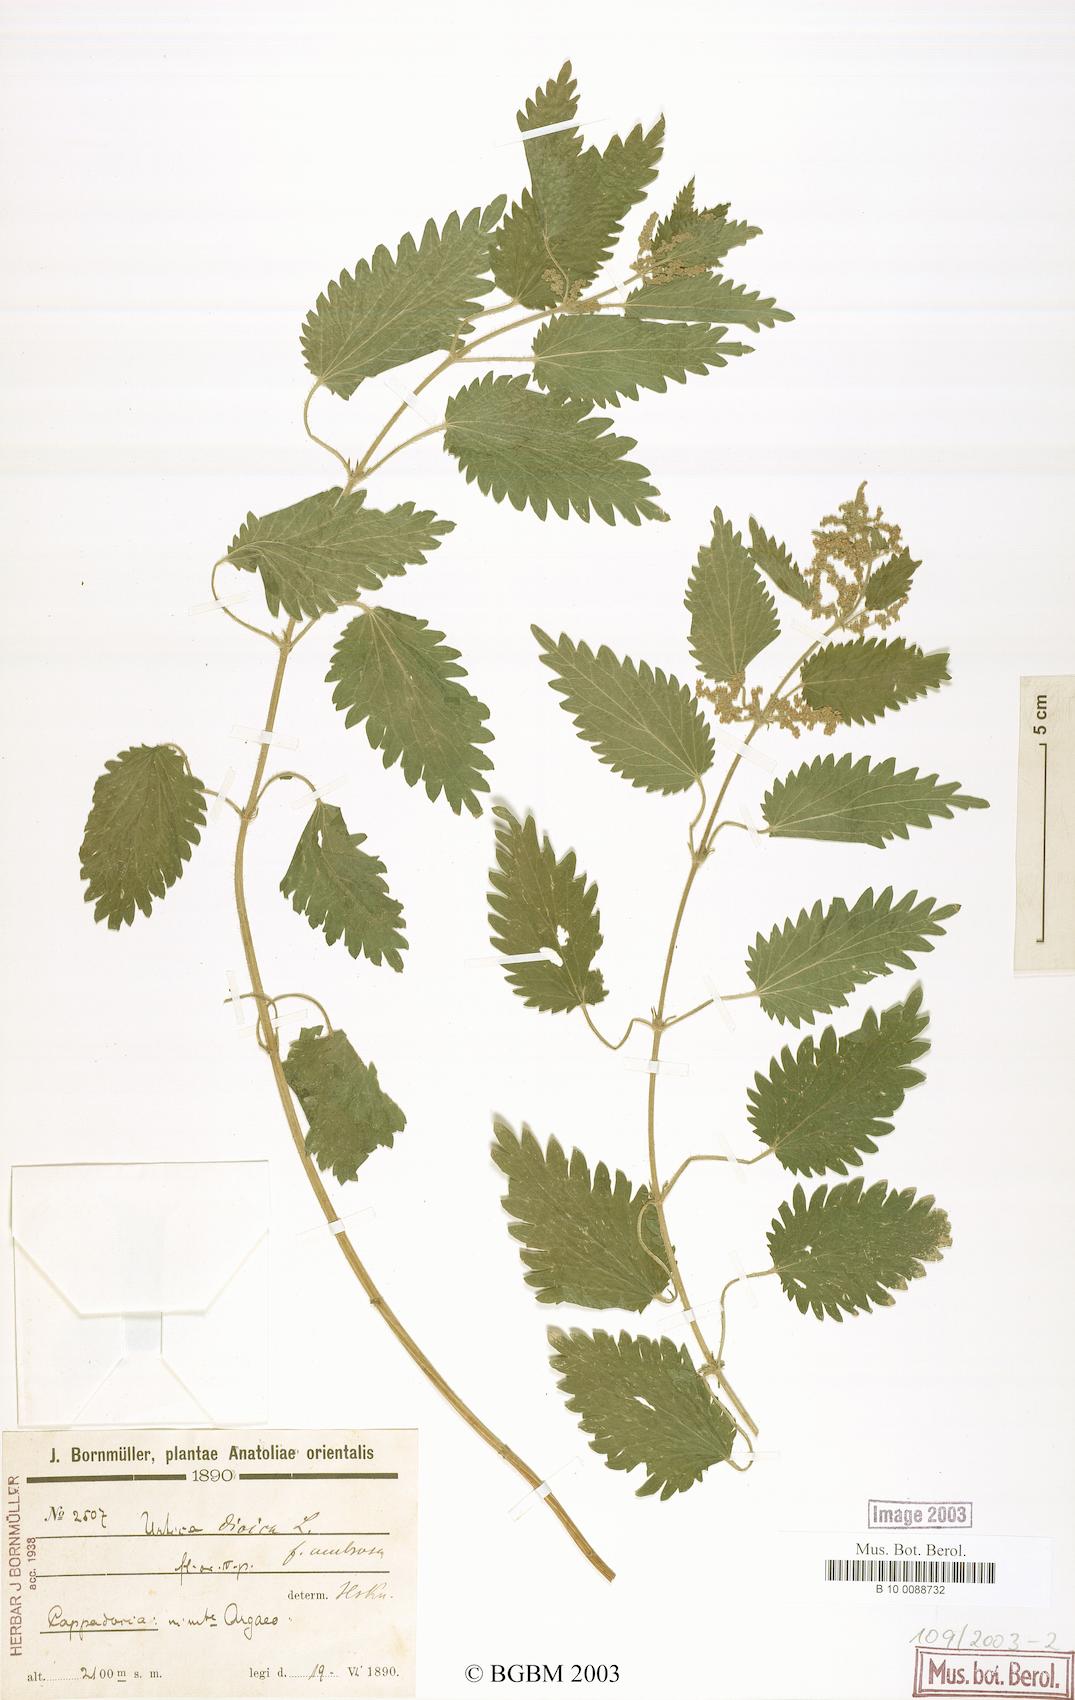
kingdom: Plantae
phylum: Tracheophyta
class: Magnoliopsida
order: Rosales
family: Urticaceae
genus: Urtica
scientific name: Urtica dioica
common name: Common nettle
